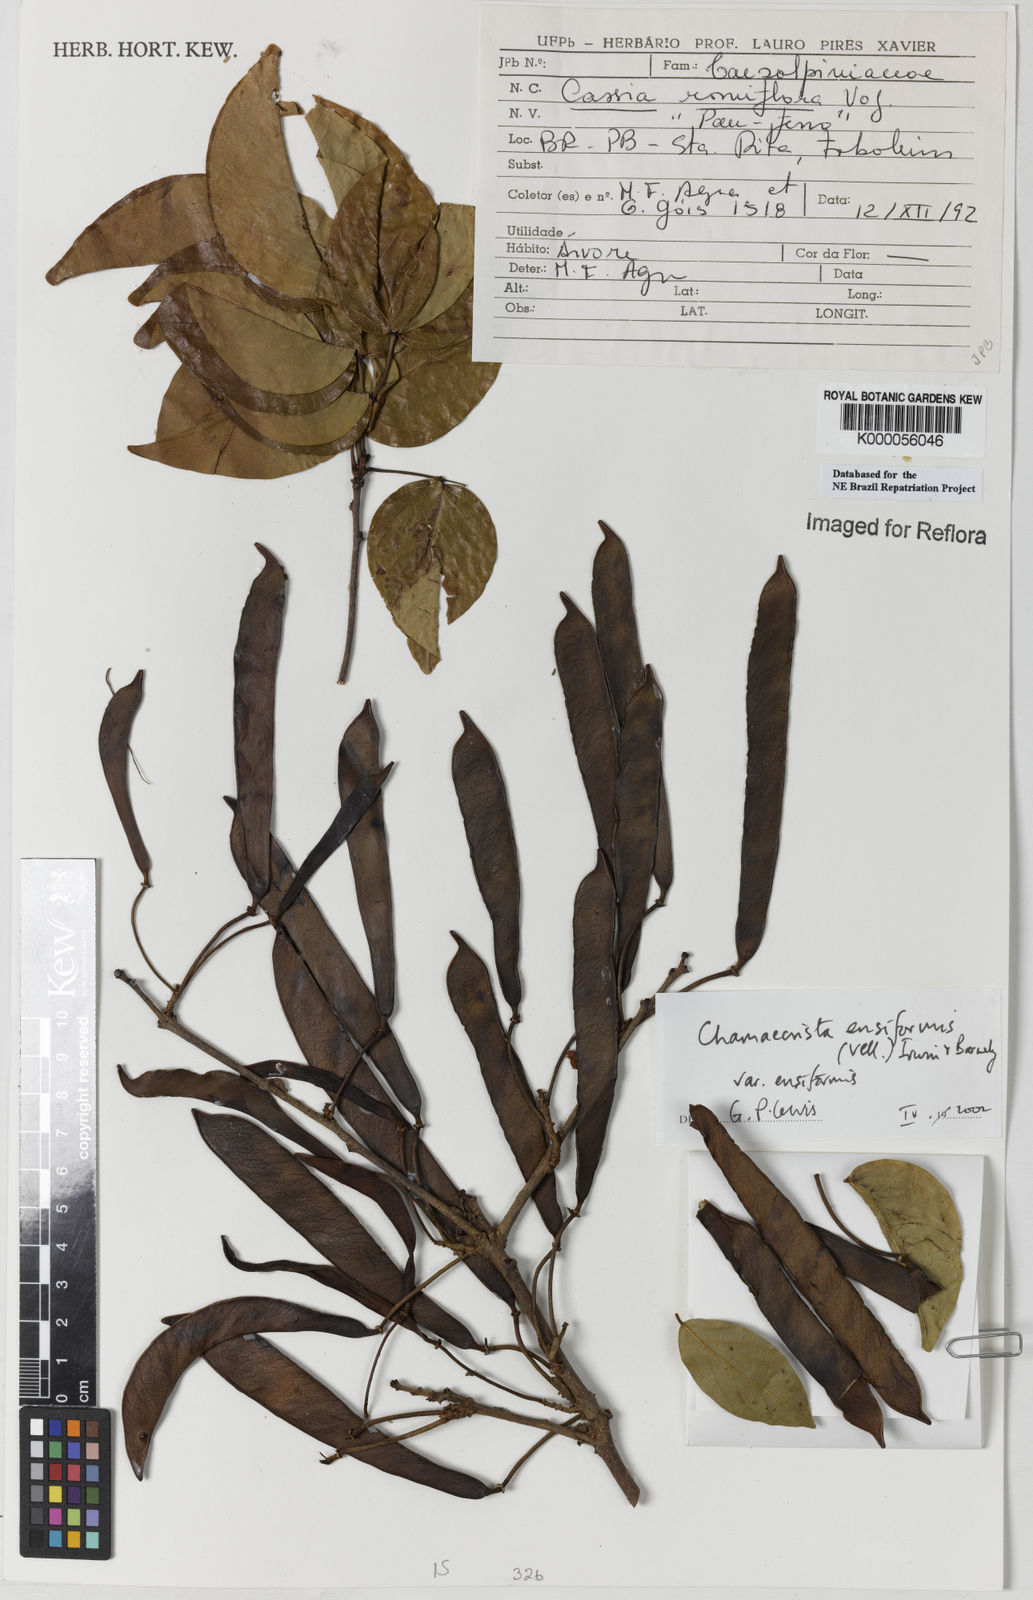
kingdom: Plantae
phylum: Tracheophyta
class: Magnoliopsida
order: Fabales
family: Fabaceae
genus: Chamaecrista
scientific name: Chamaecrista ensiformis
